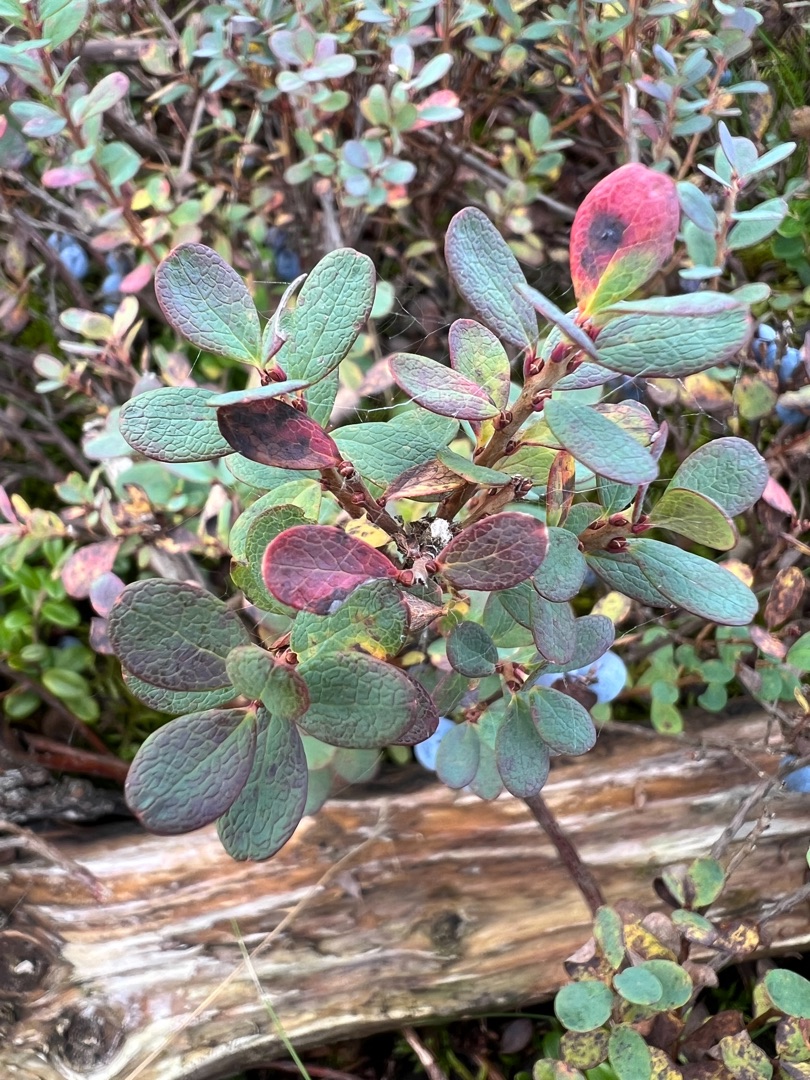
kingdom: Plantae
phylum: Tracheophyta
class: Magnoliopsida
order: Ericales
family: Ericaceae
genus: Vaccinium
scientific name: Vaccinium uliginosum
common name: Mose-bølle
